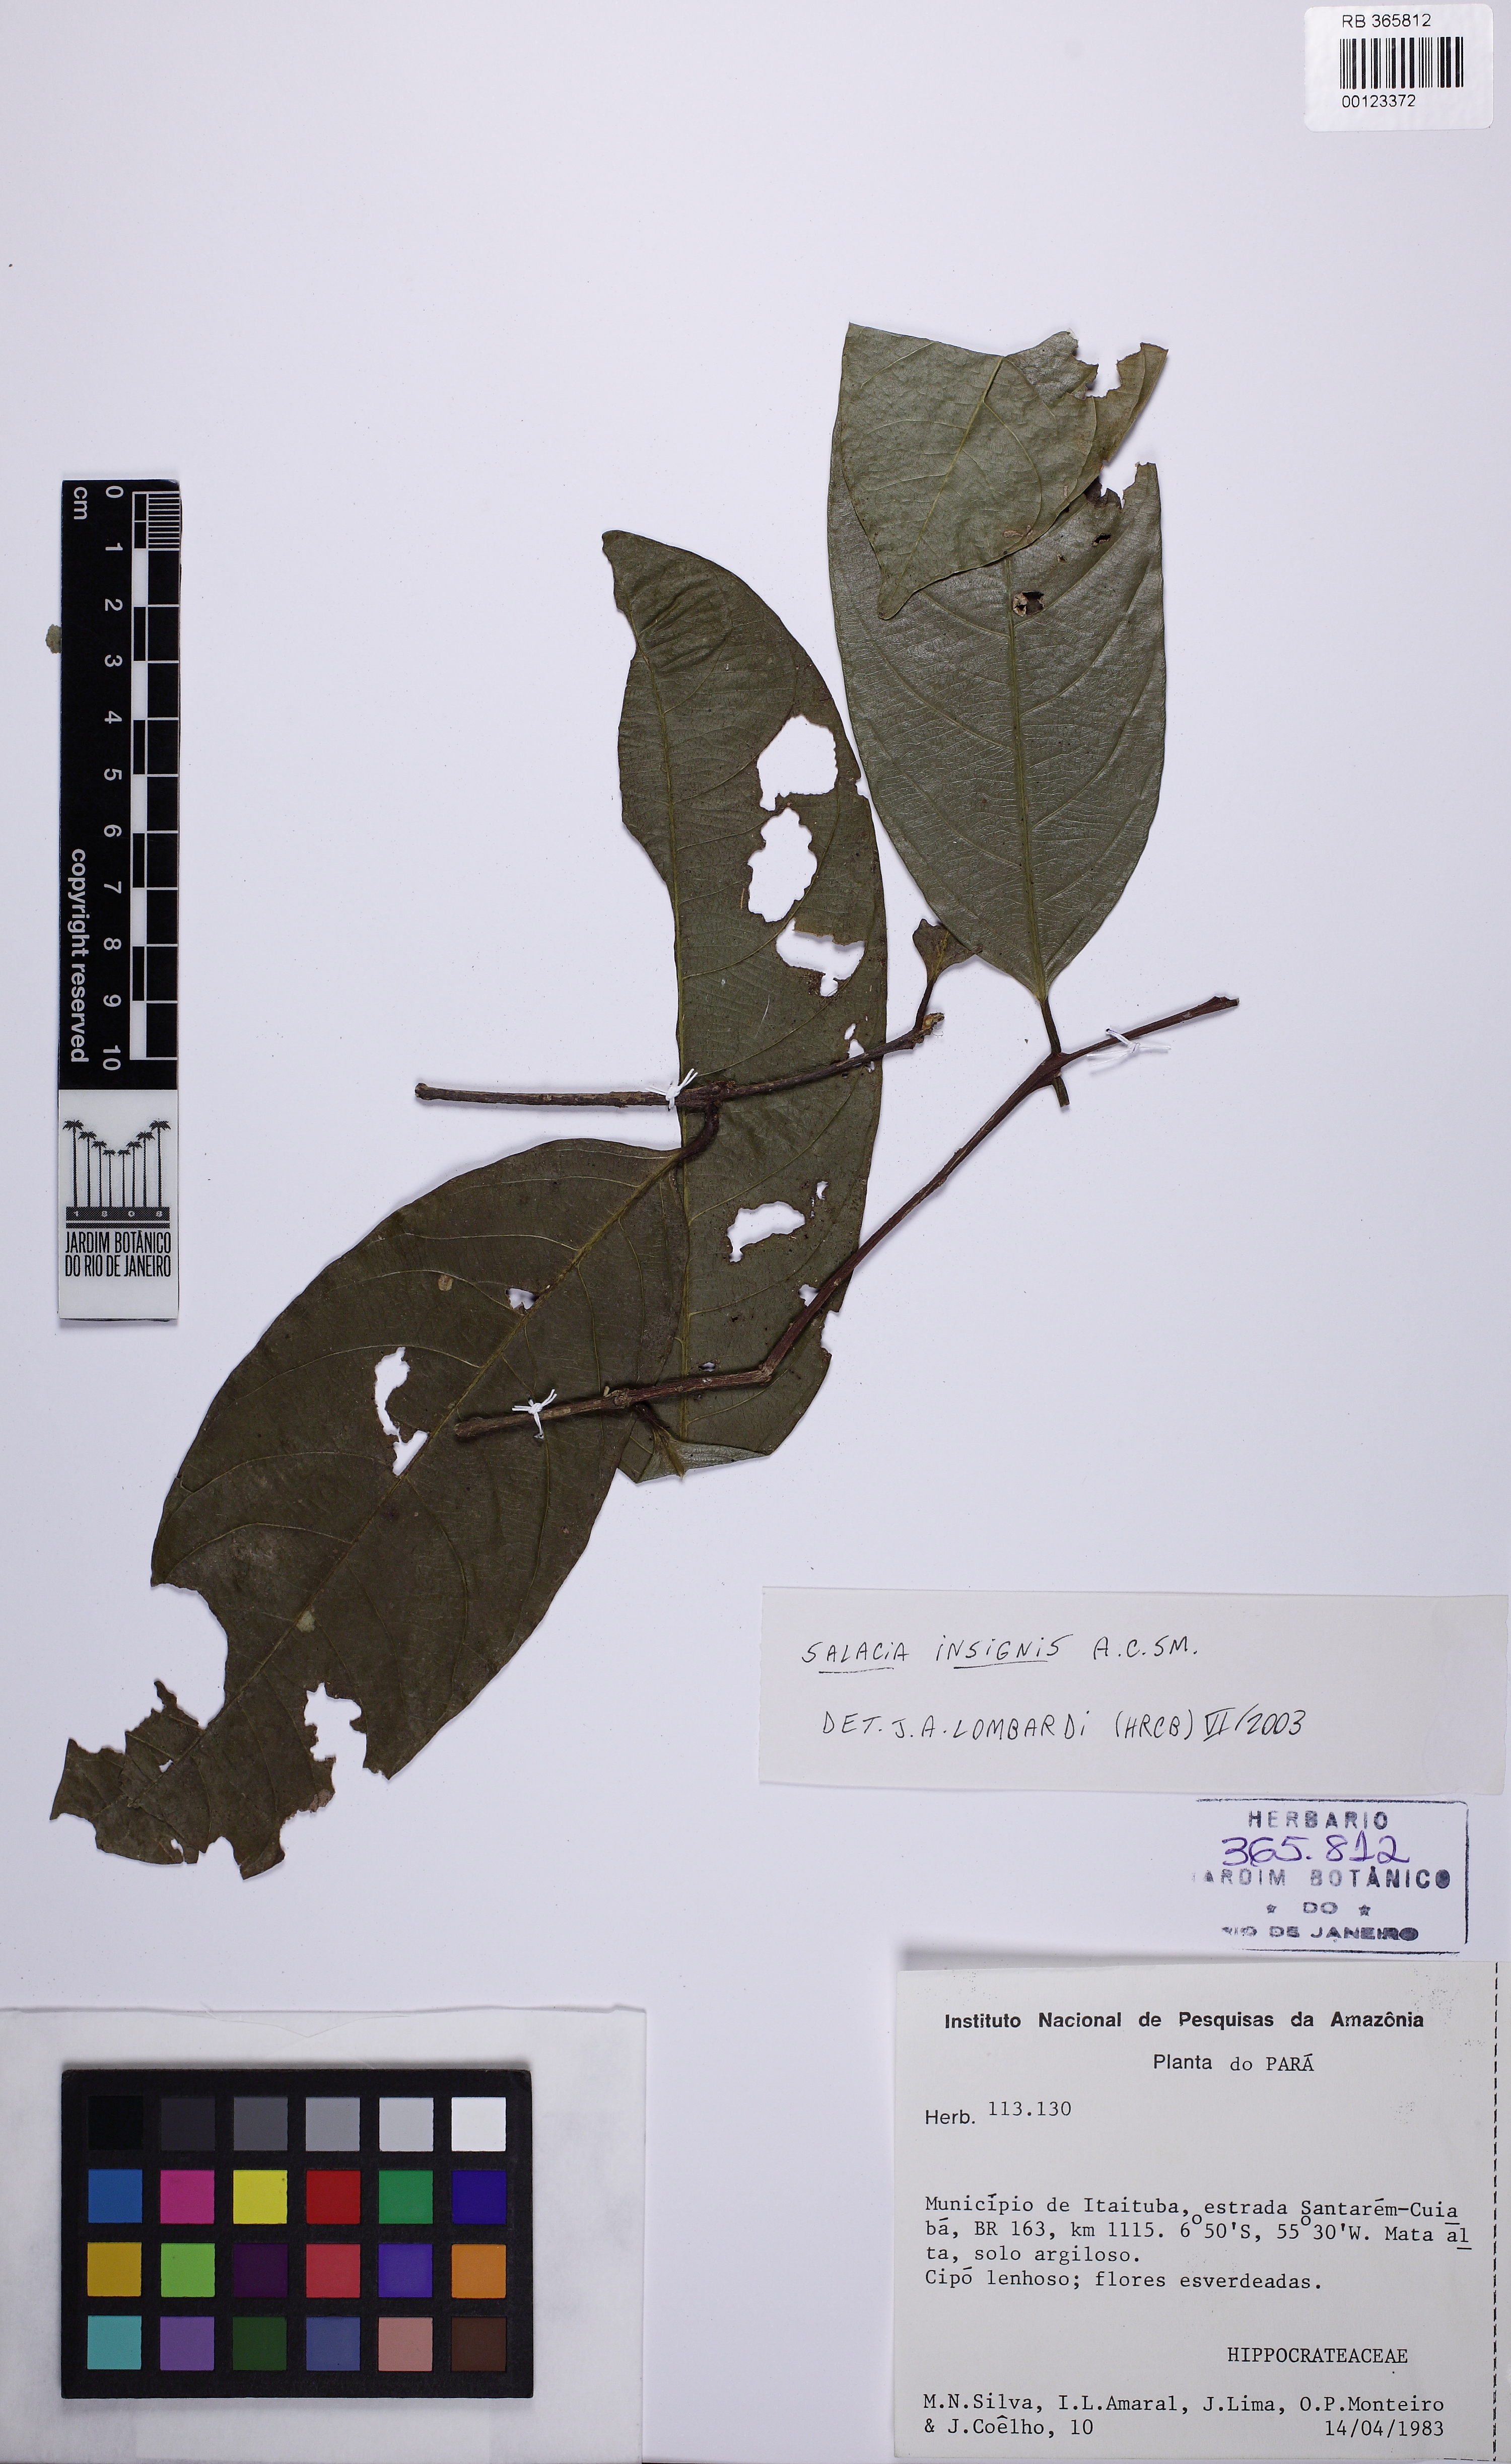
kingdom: Plantae
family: Hippocrateaceae
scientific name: Hippocrateaceae
